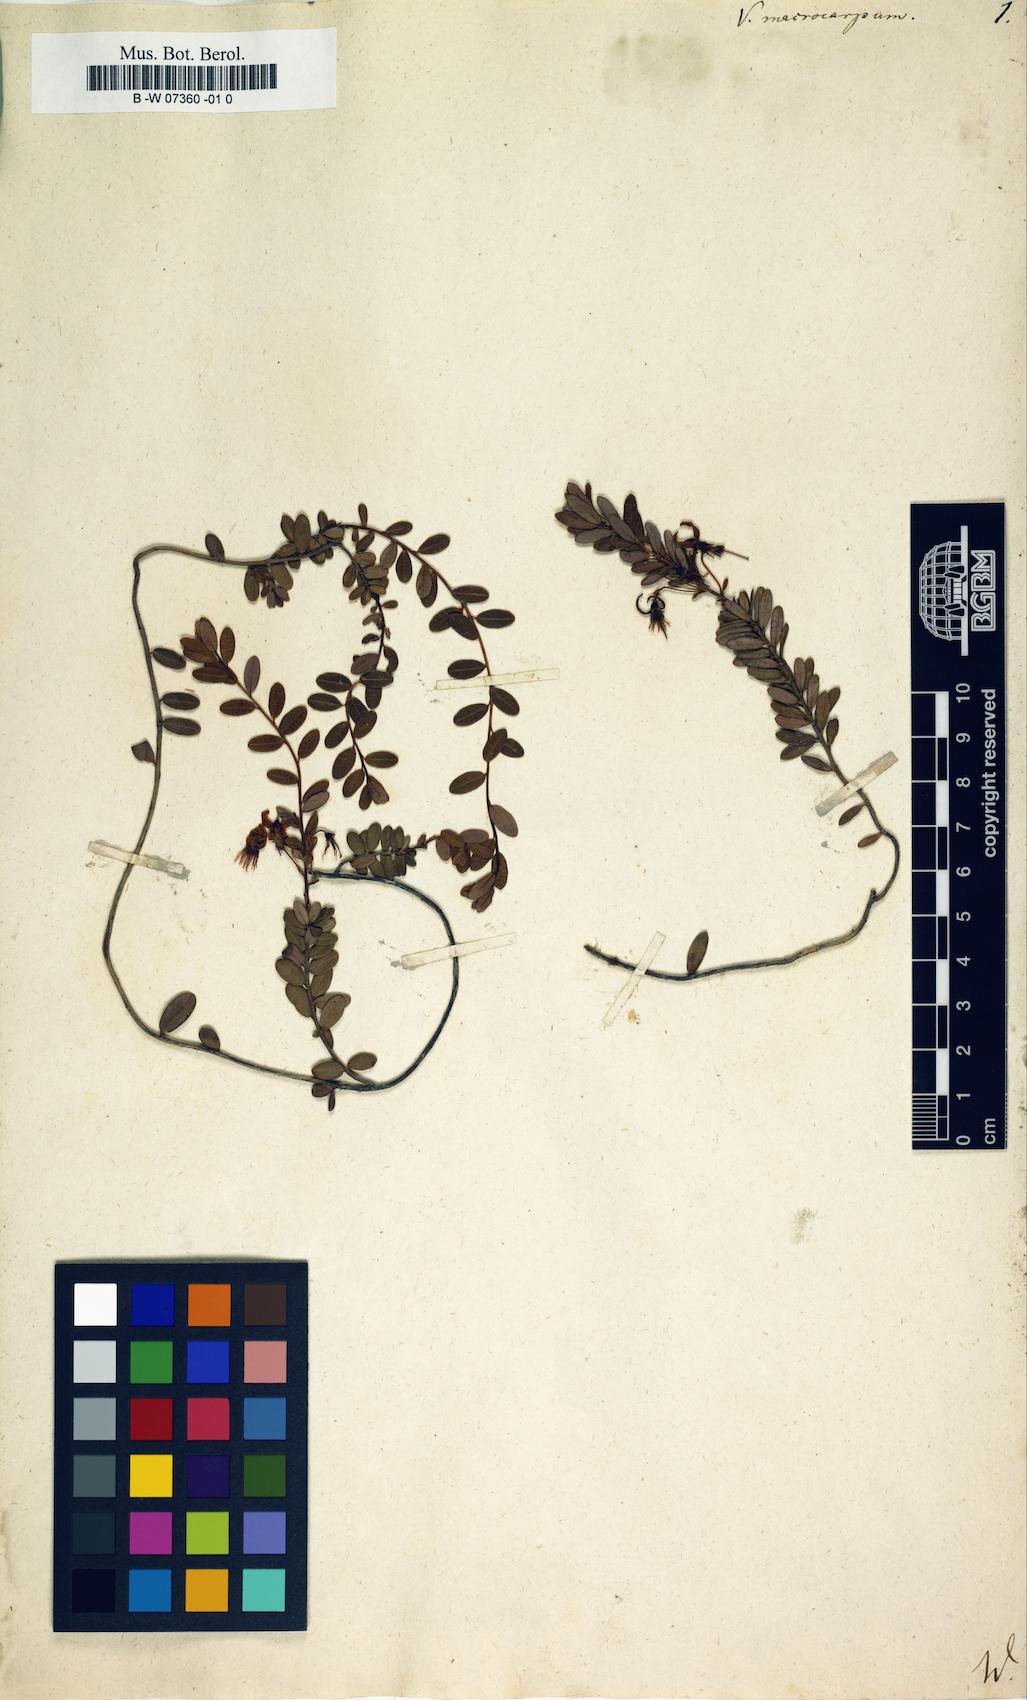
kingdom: Plantae
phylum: Tracheophyta
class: Magnoliopsida
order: Ericales
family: Ericaceae
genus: Vaccinium
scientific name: Vaccinium macrocarpon
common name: American cranberry
